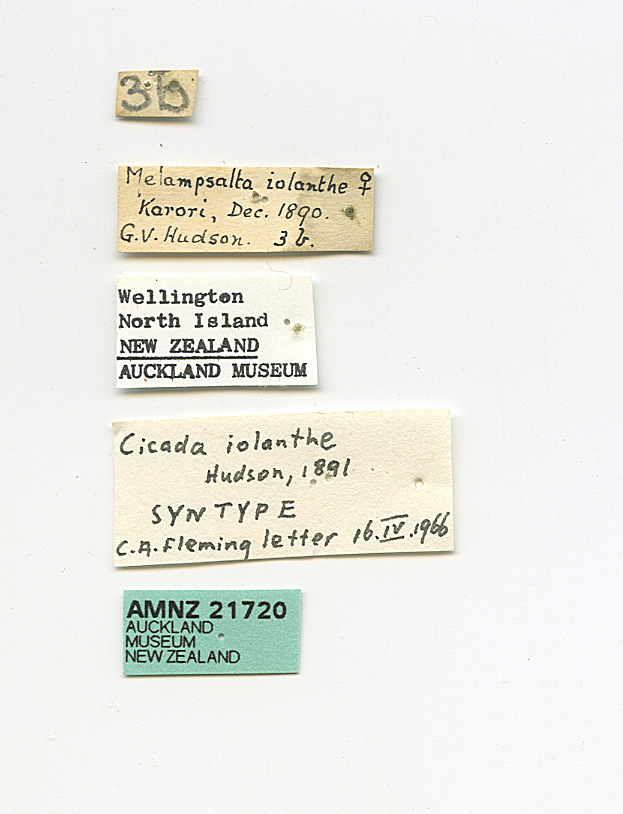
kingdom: Animalia
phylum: Arthropoda
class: Insecta
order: Hemiptera
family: Cicadidae
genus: Maoricicada
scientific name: Maoricicada iolanthe
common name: Iolanthe cicada
